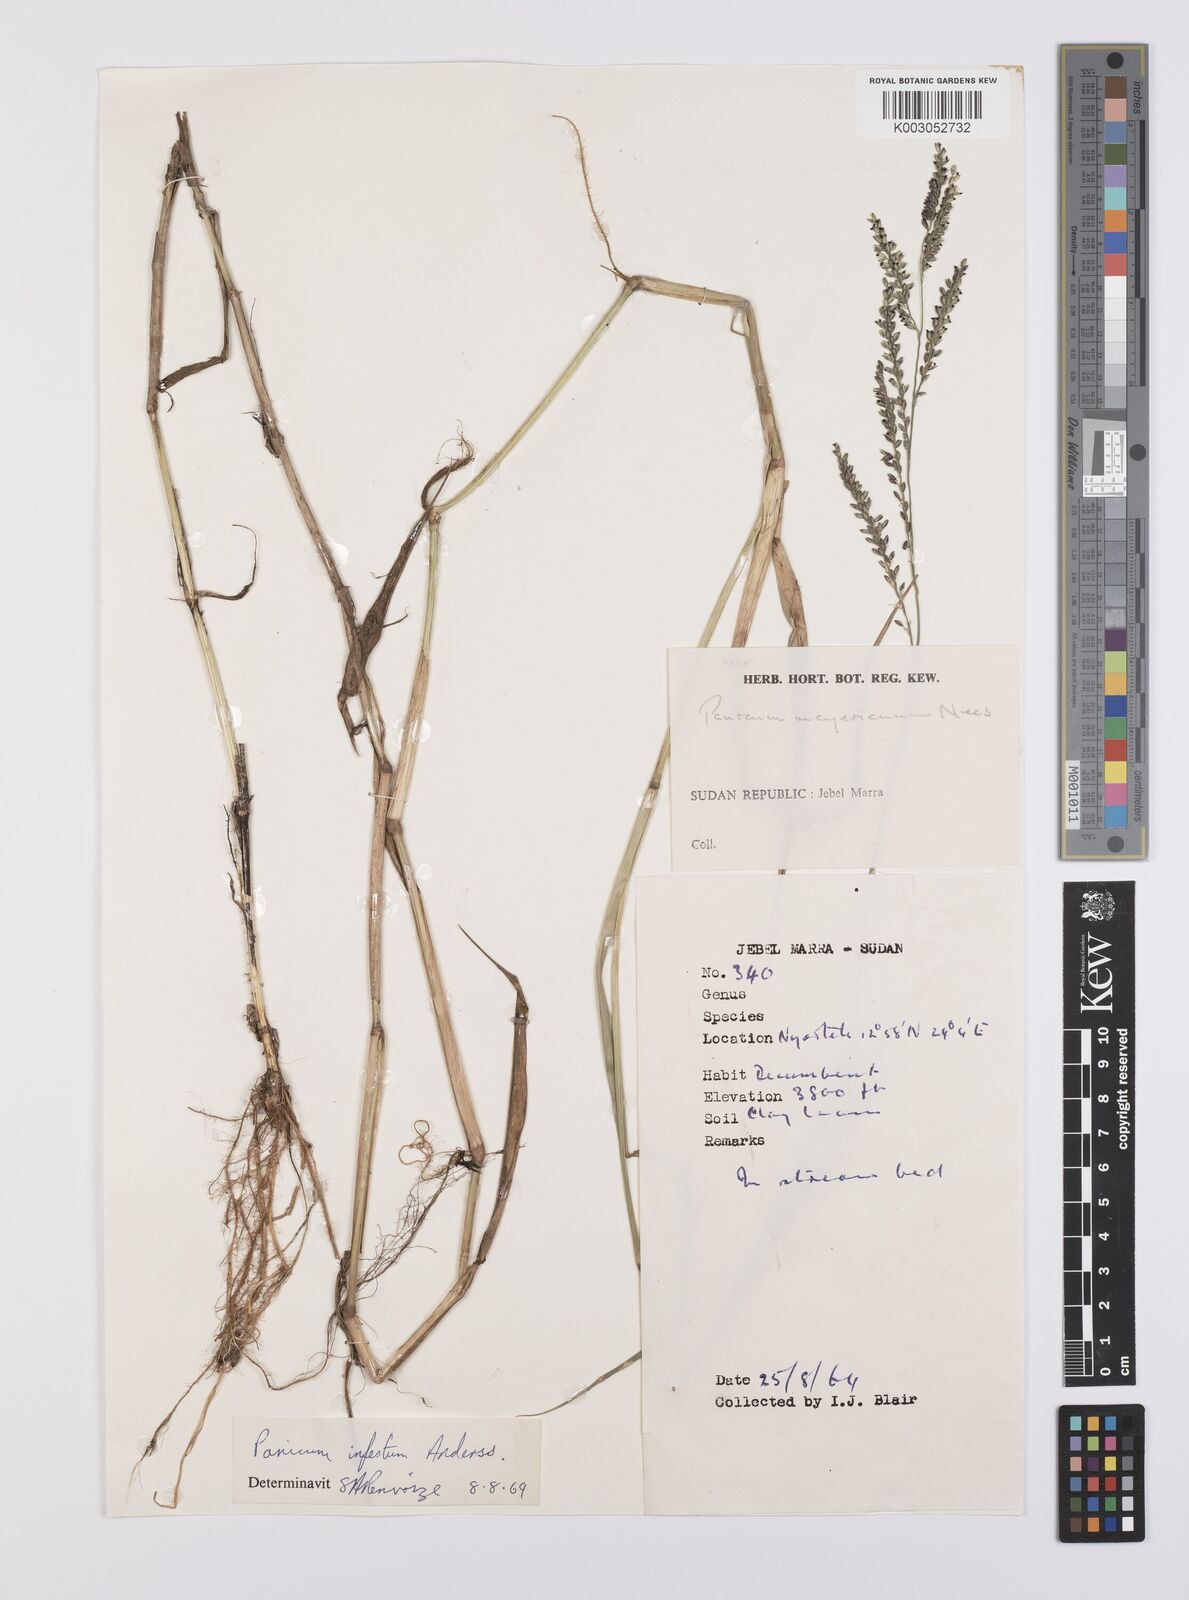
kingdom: Plantae
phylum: Tracheophyta
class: Liliopsida
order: Poales
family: Poaceae
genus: Urochloa
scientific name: Urochloa mutica
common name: Para grass
